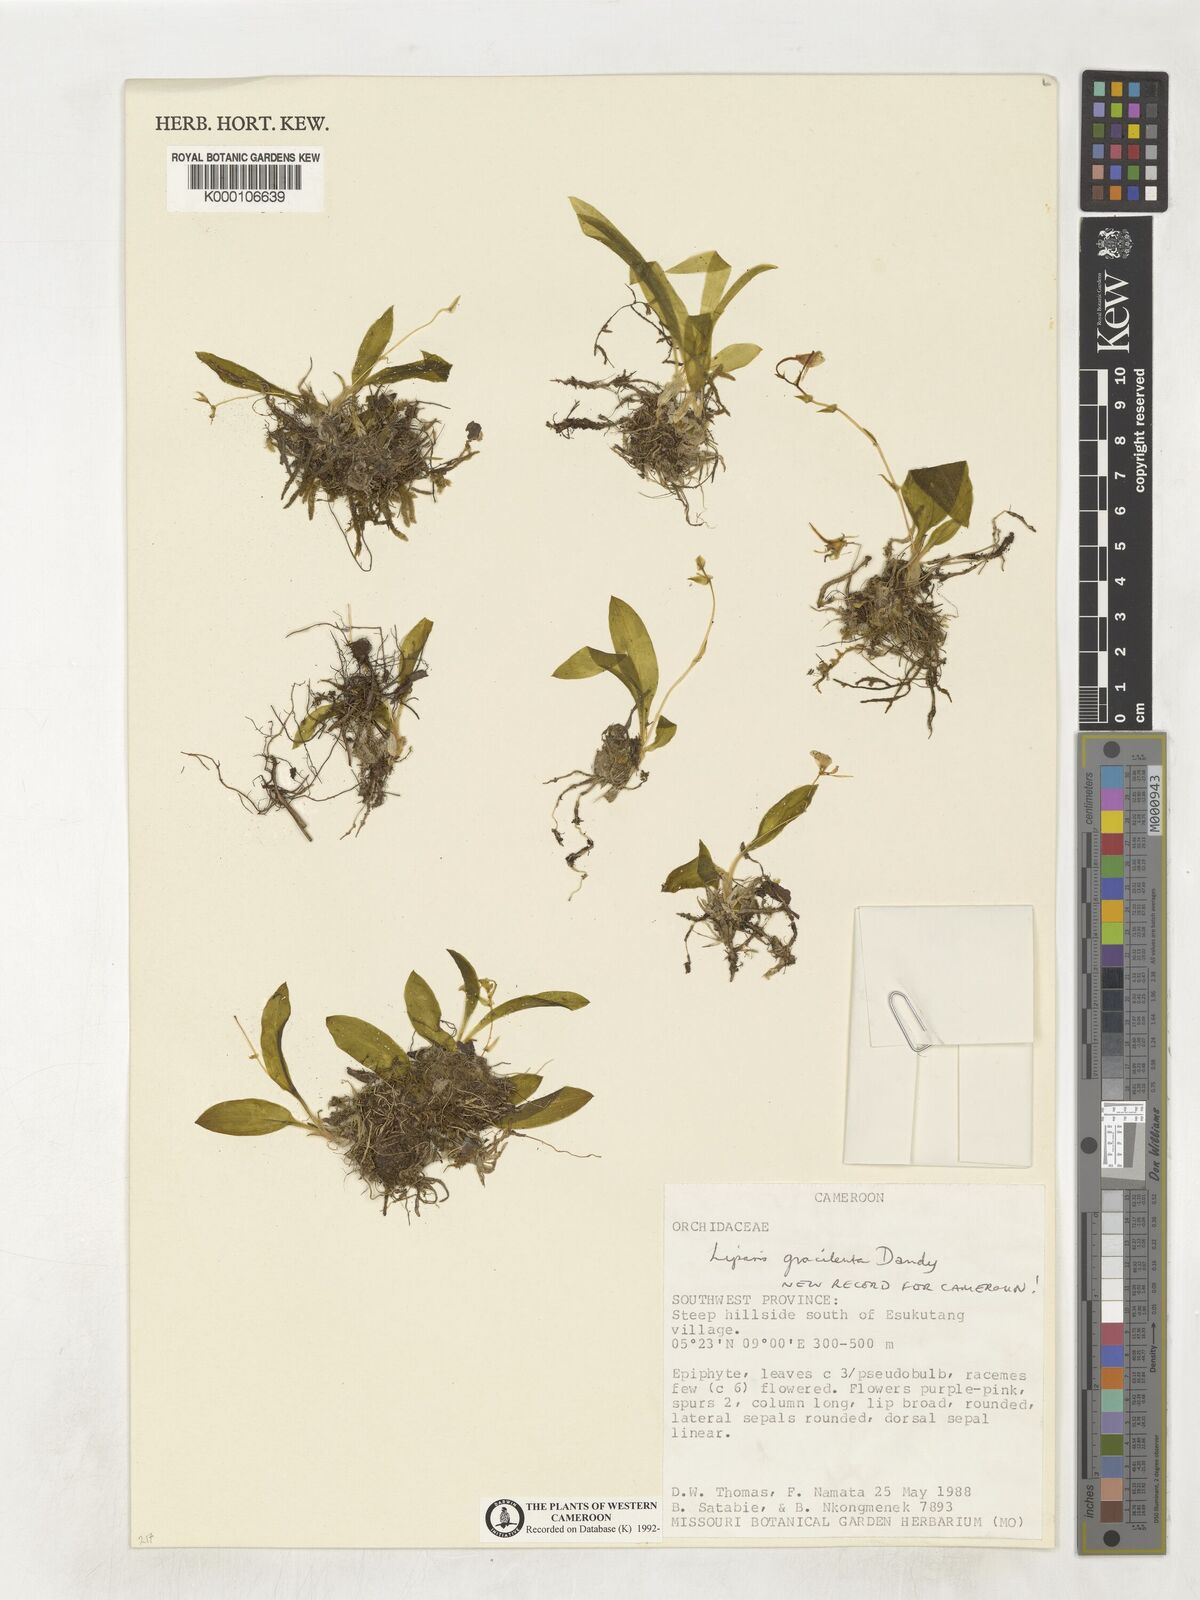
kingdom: Plantae
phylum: Tracheophyta
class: Liliopsida
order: Asparagales
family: Orchidaceae
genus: Liparis
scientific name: Liparis gracilenta
